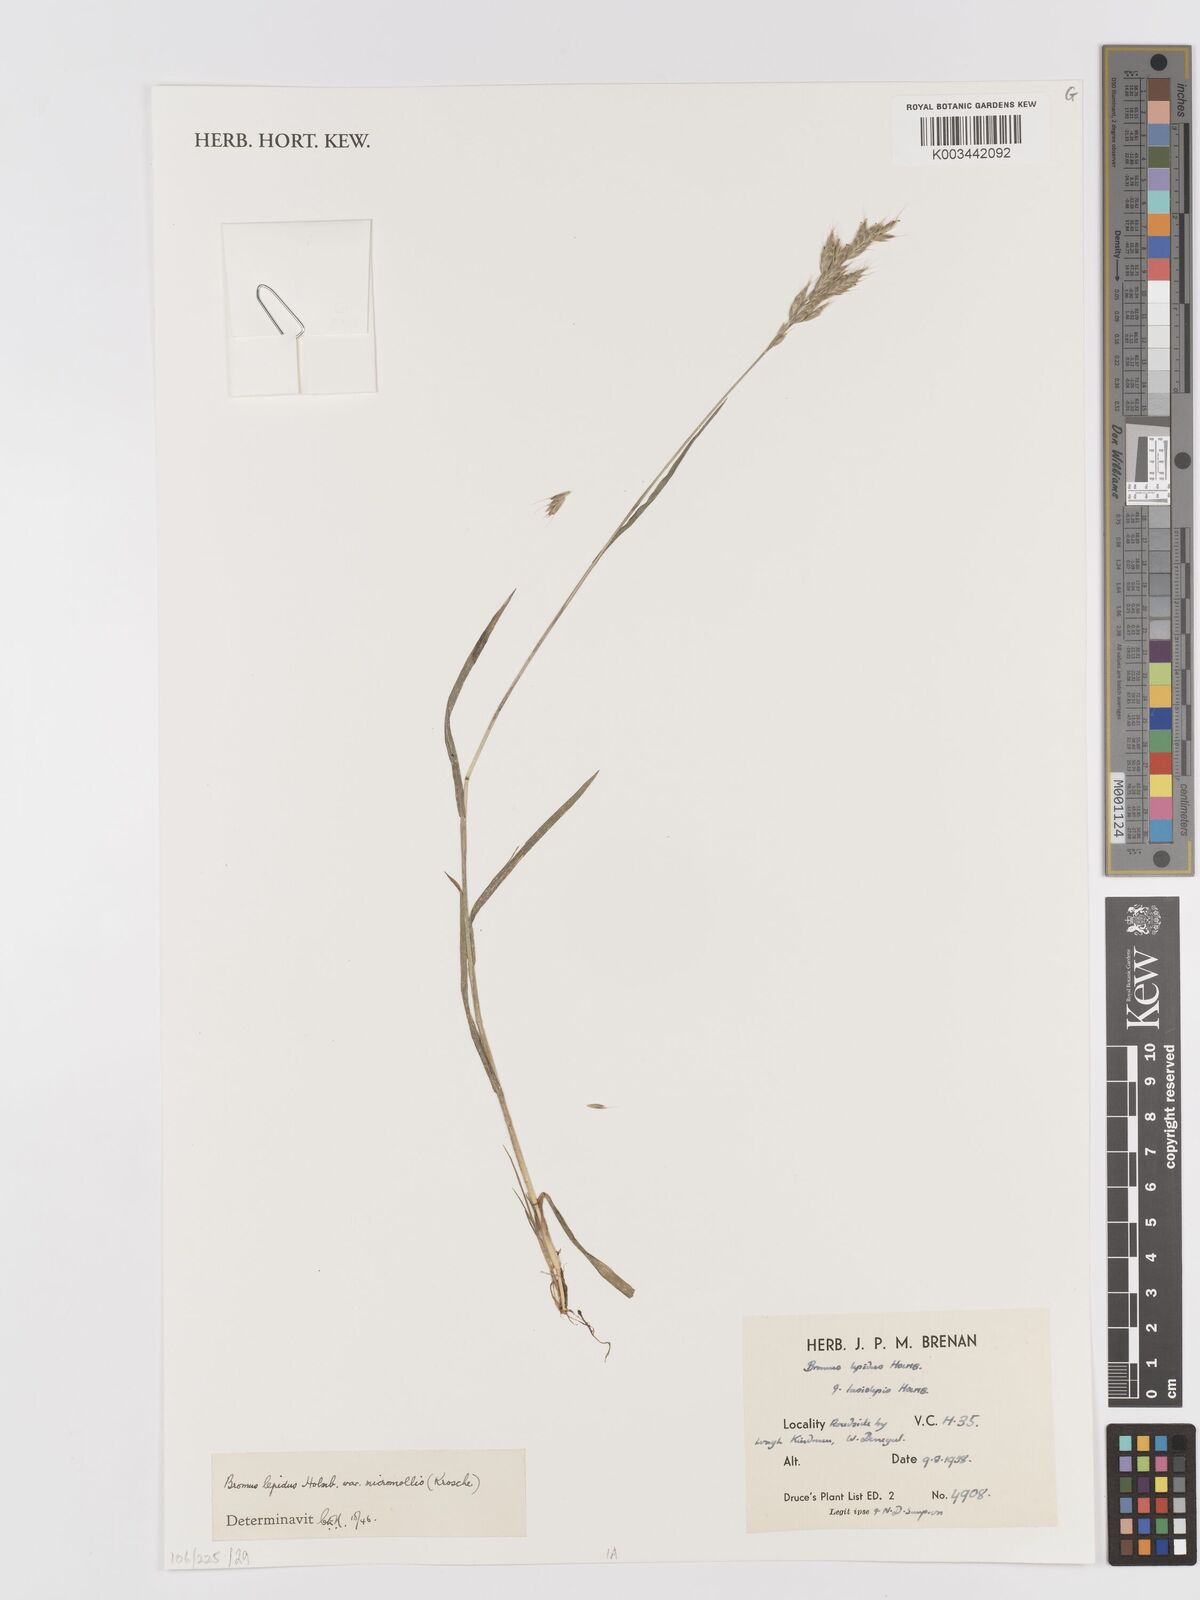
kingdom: Plantae
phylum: Tracheophyta
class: Liliopsida
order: Poales
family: Poaceae
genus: Bromus
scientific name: Bromus lepidus
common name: Slender soft-brome
